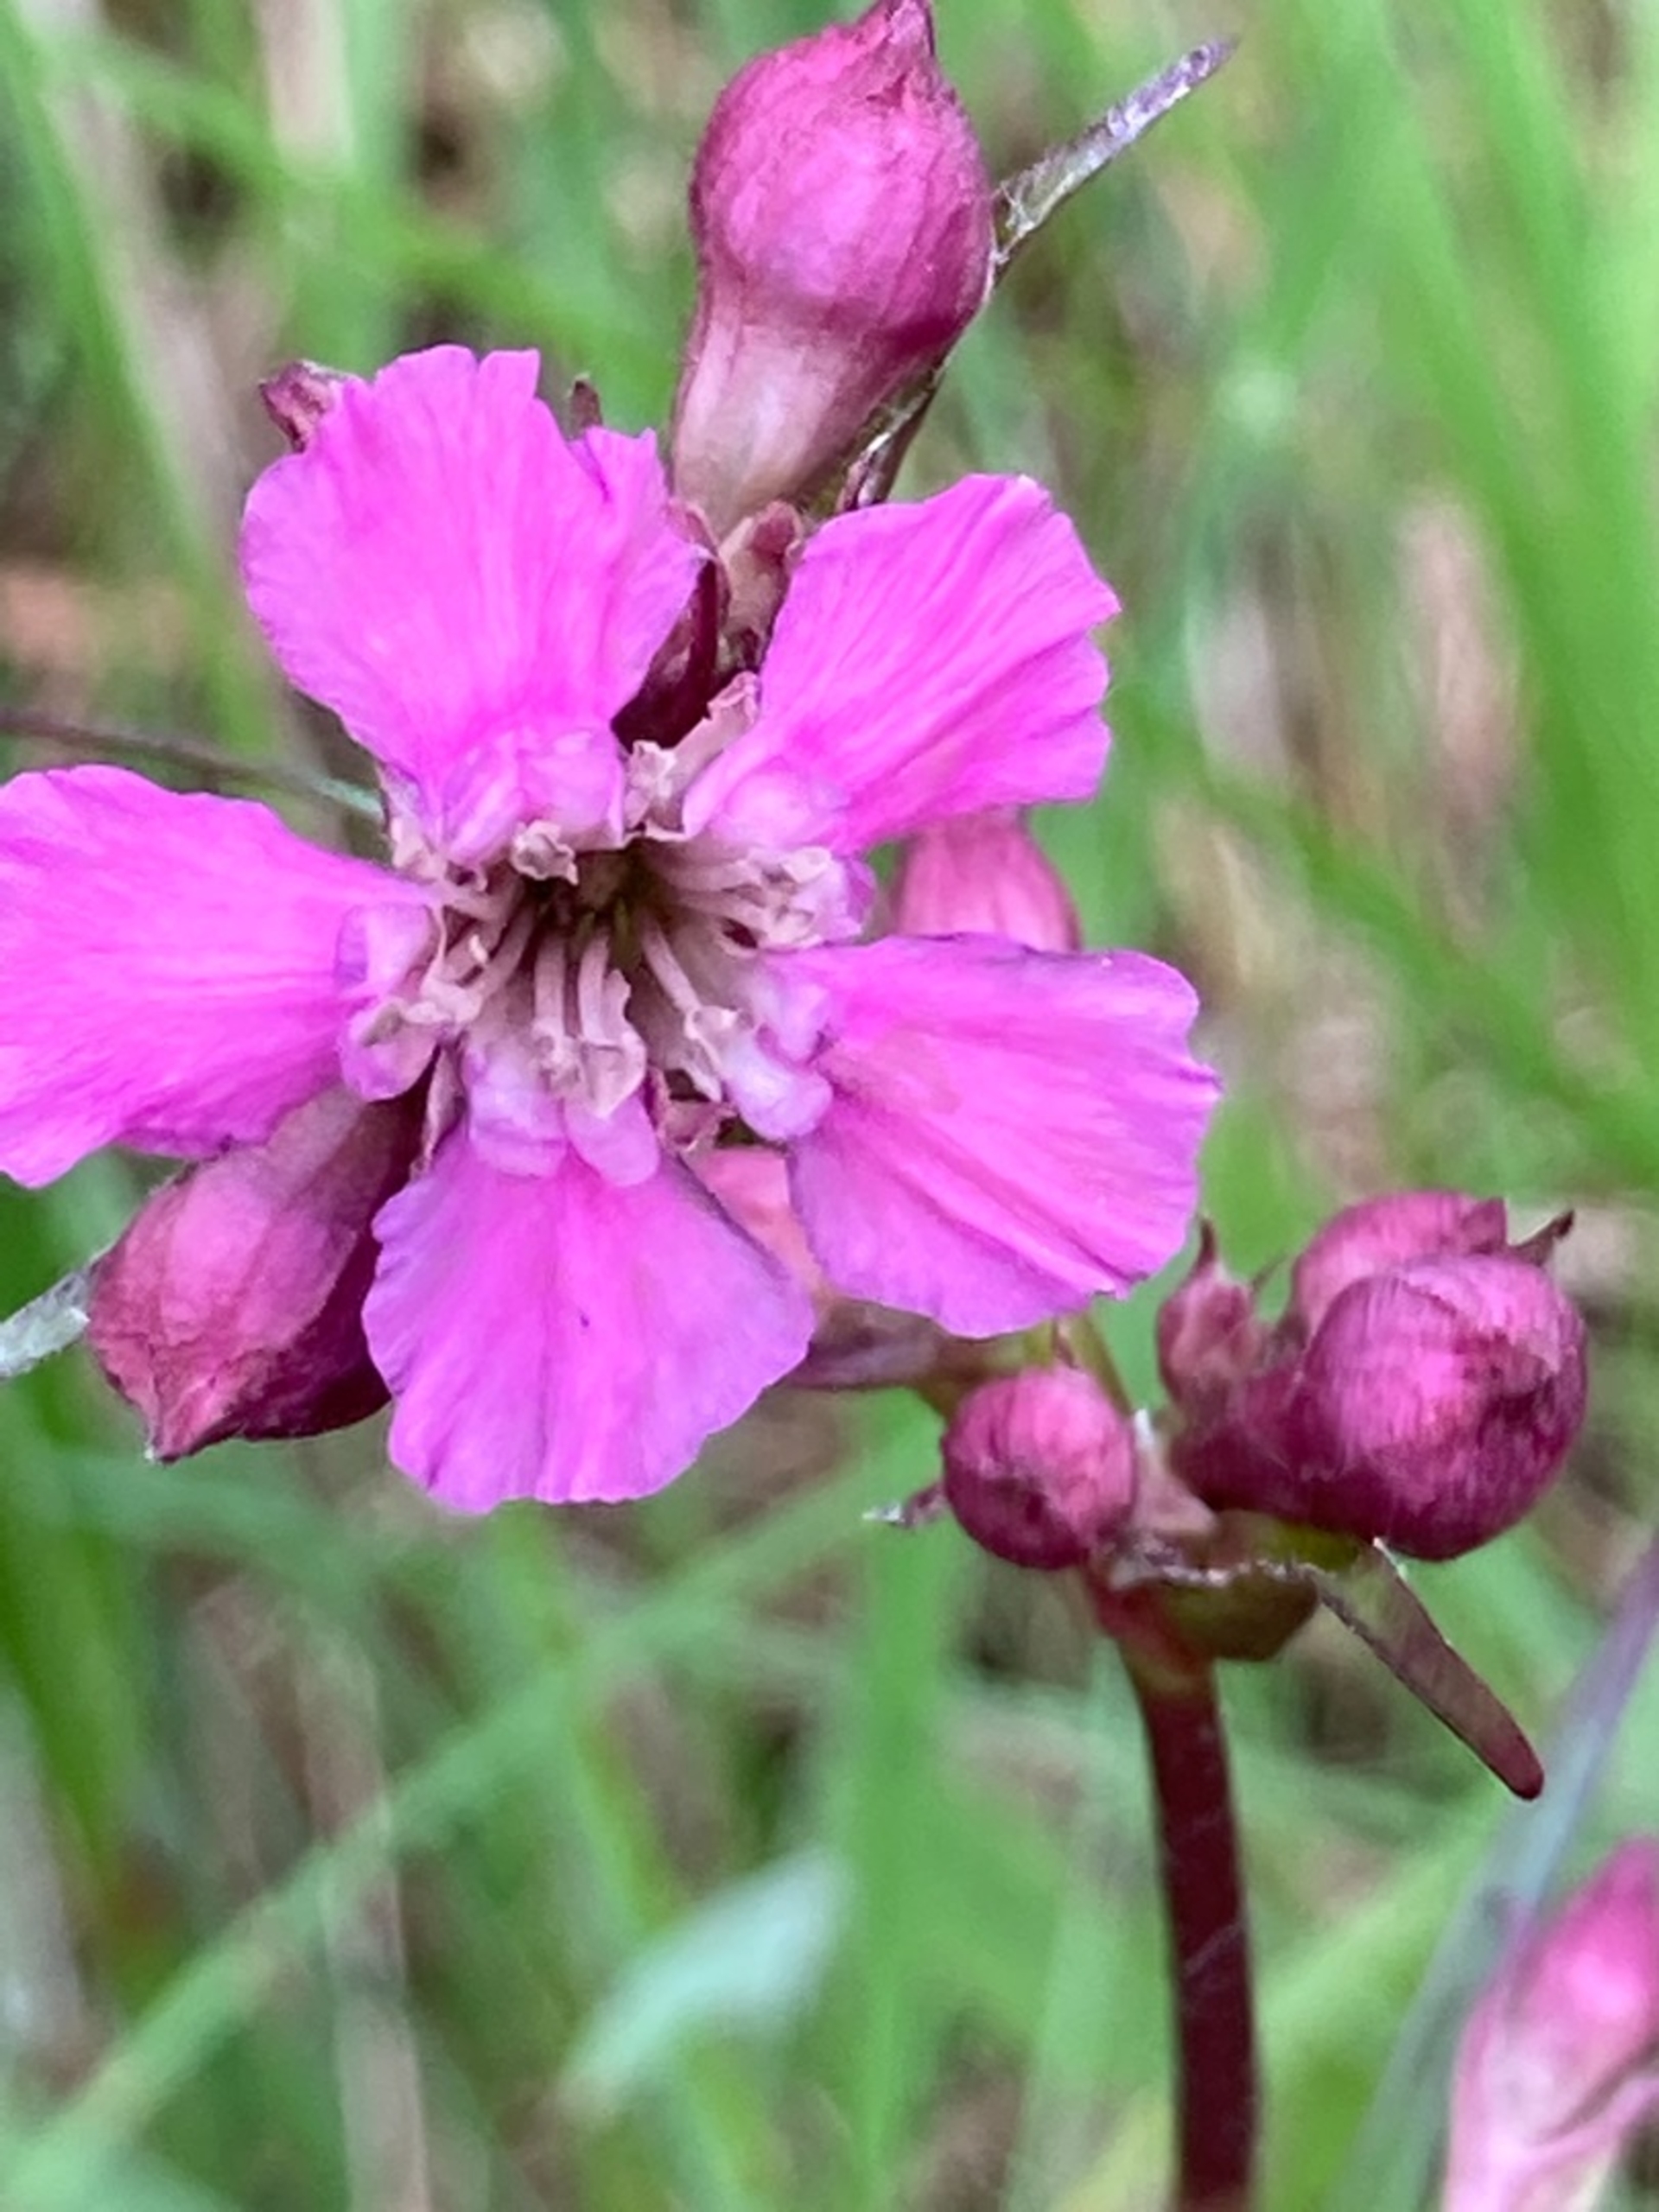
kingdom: Plantae
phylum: Tracheophyta
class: Magnoliopsida
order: Caryophyllales
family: Caryophyllaceae
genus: Viscaria
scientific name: Viscaria vulgaris
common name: Tjærenellike
